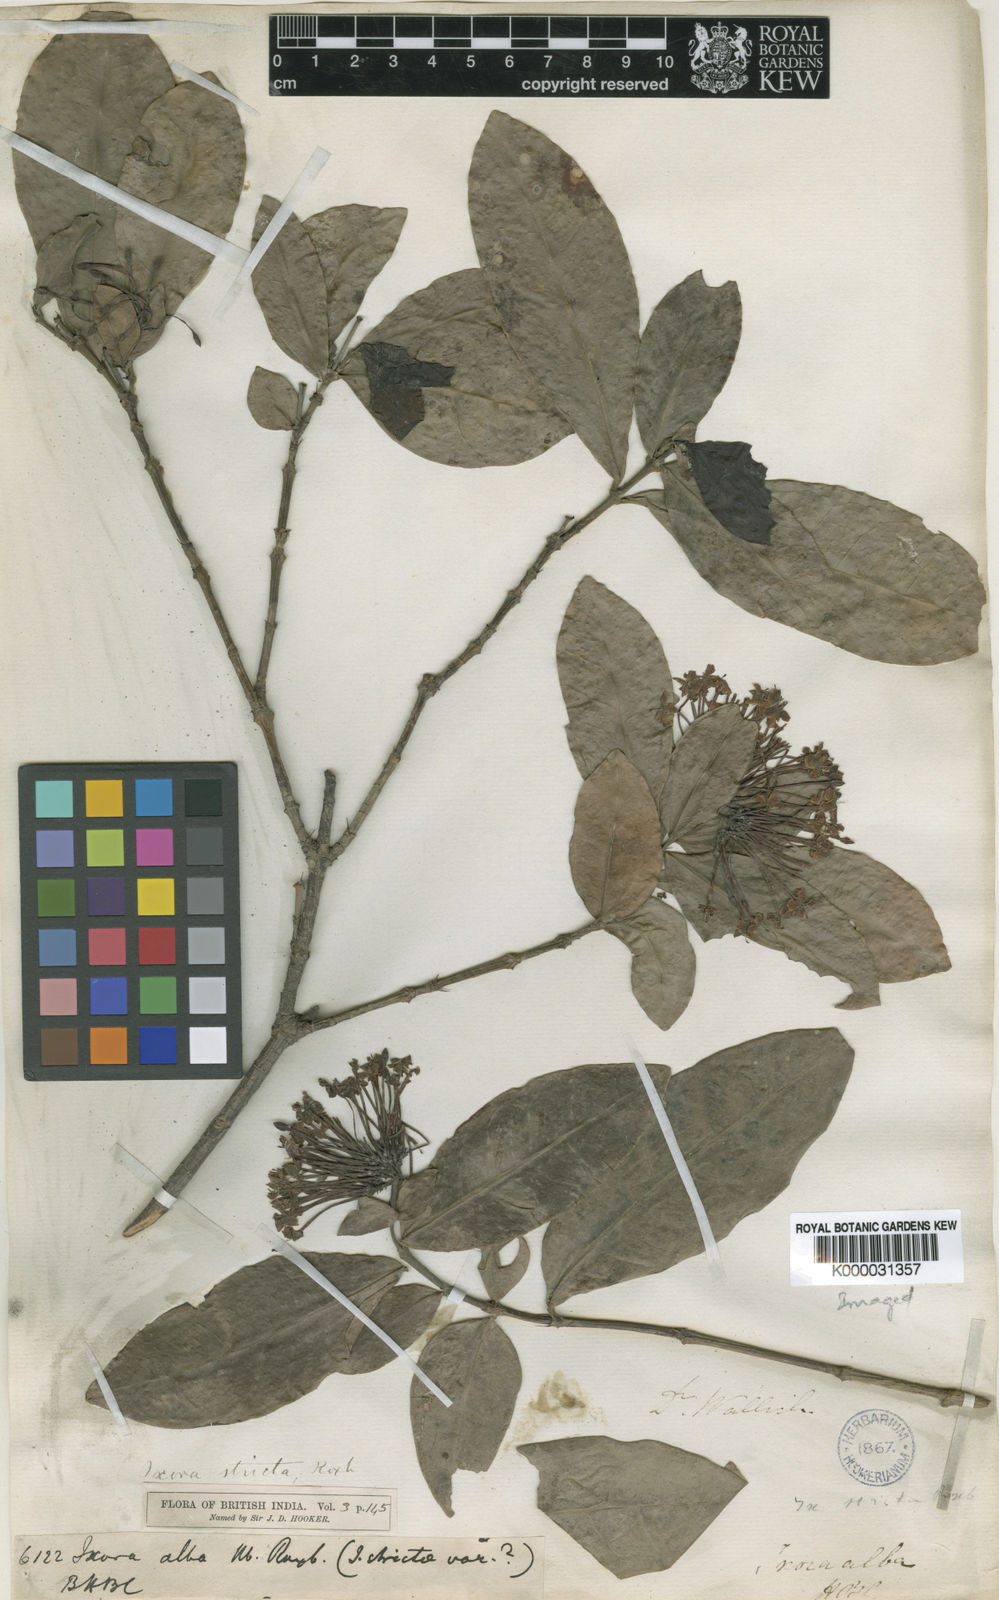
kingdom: Plantae
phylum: Tracheophyta
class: Magnoliopsida
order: Gentianales
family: Rubiaceae
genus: Ixora
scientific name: Ixora chinensis
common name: Chinese ixora
